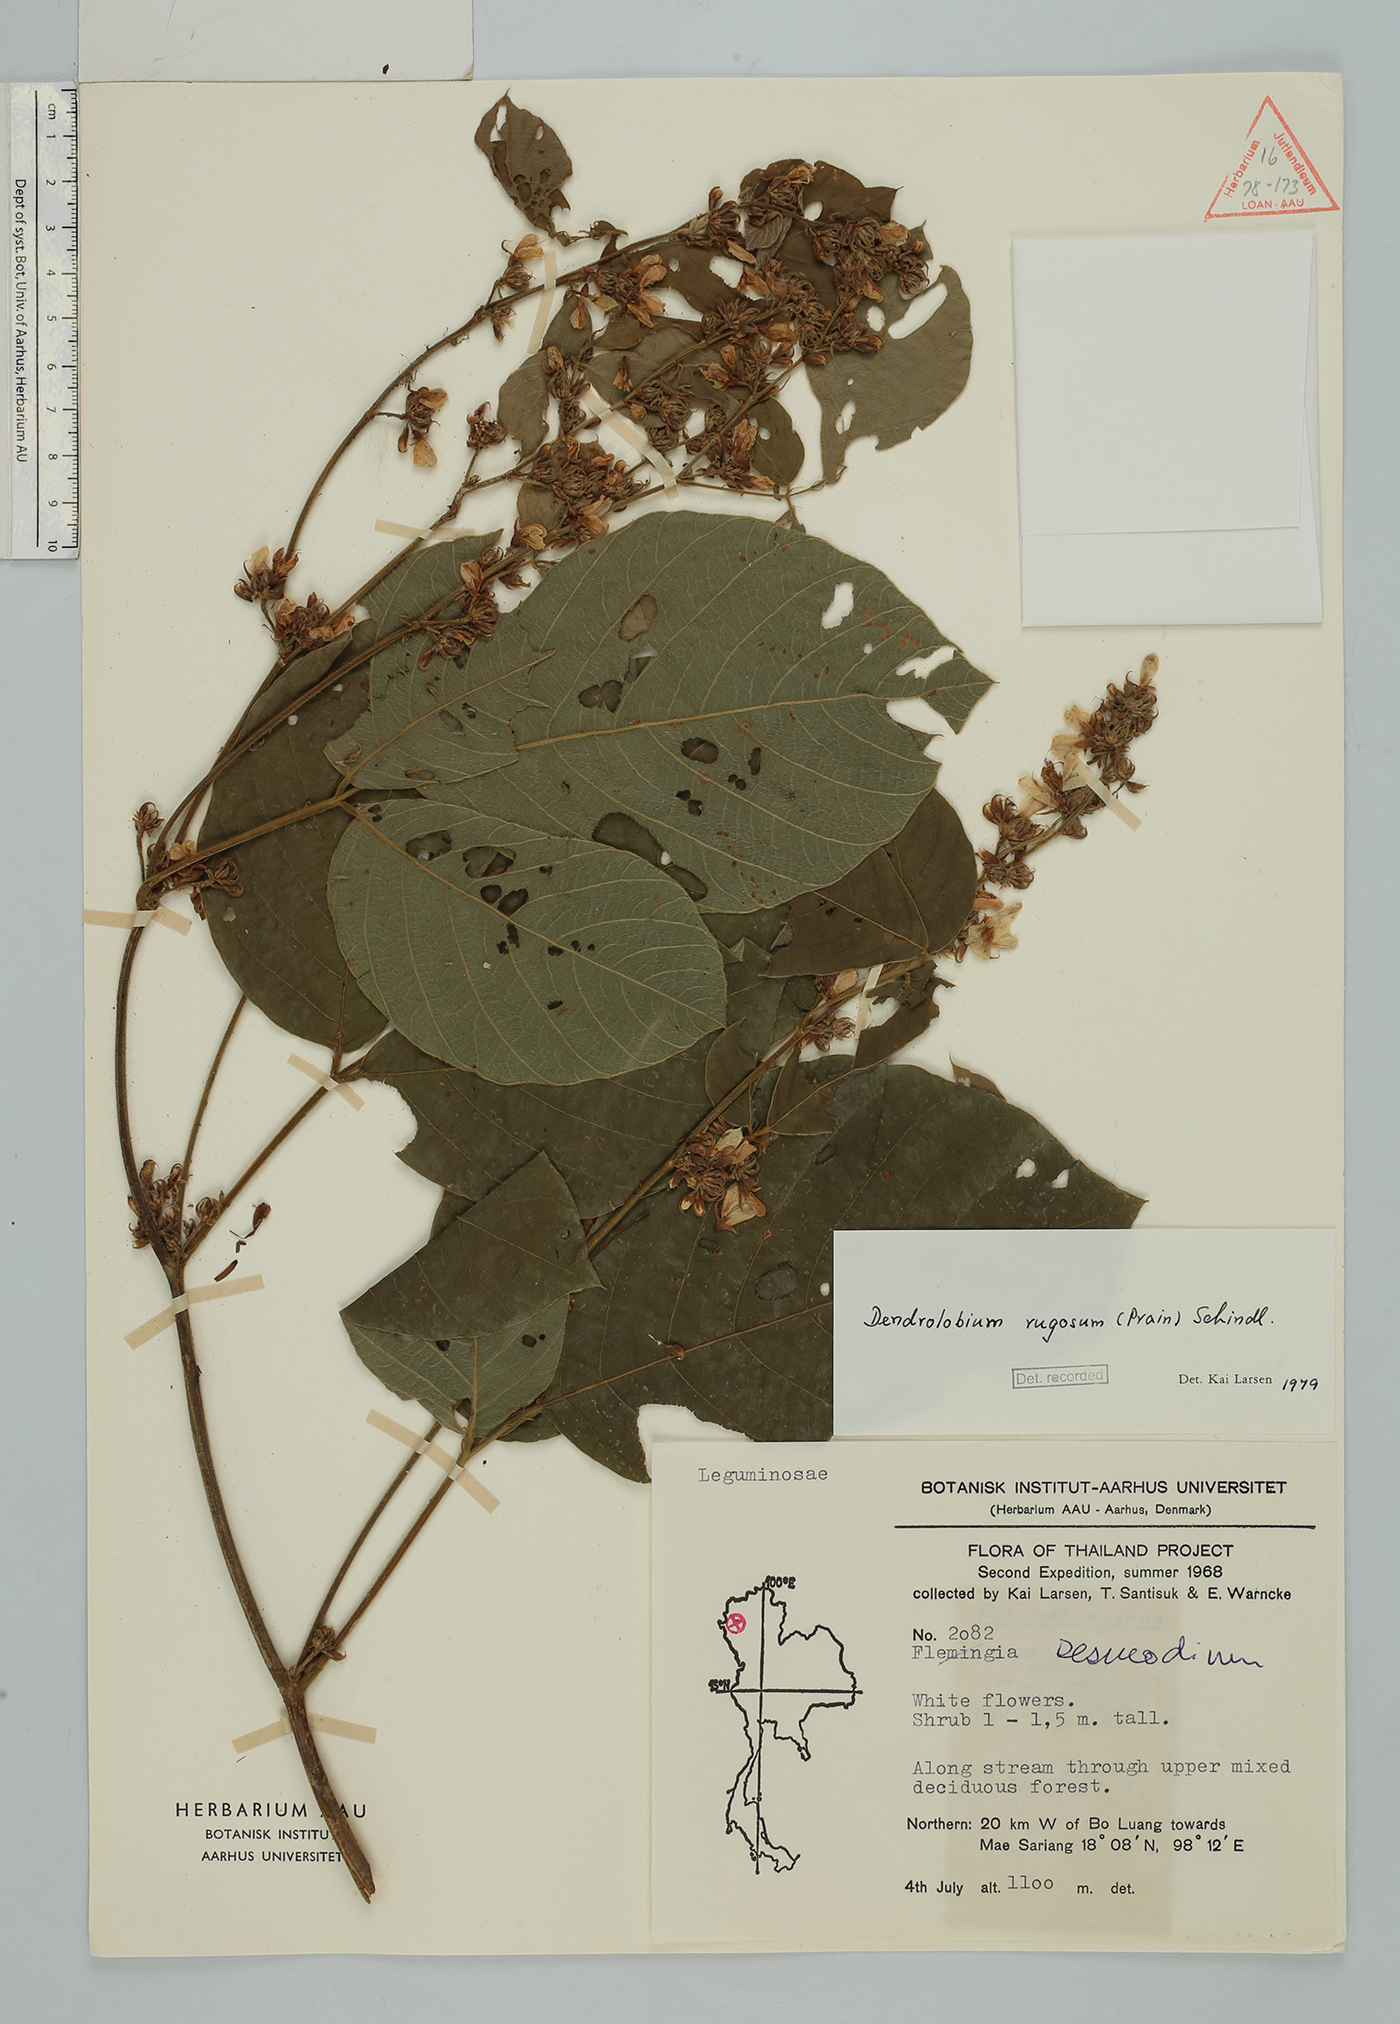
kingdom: Plantae
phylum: Tracheophyta
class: Magnoliopsida
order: Fabales
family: Fabaceae
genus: Dendrolobium
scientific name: Dendrolobium rugosum
